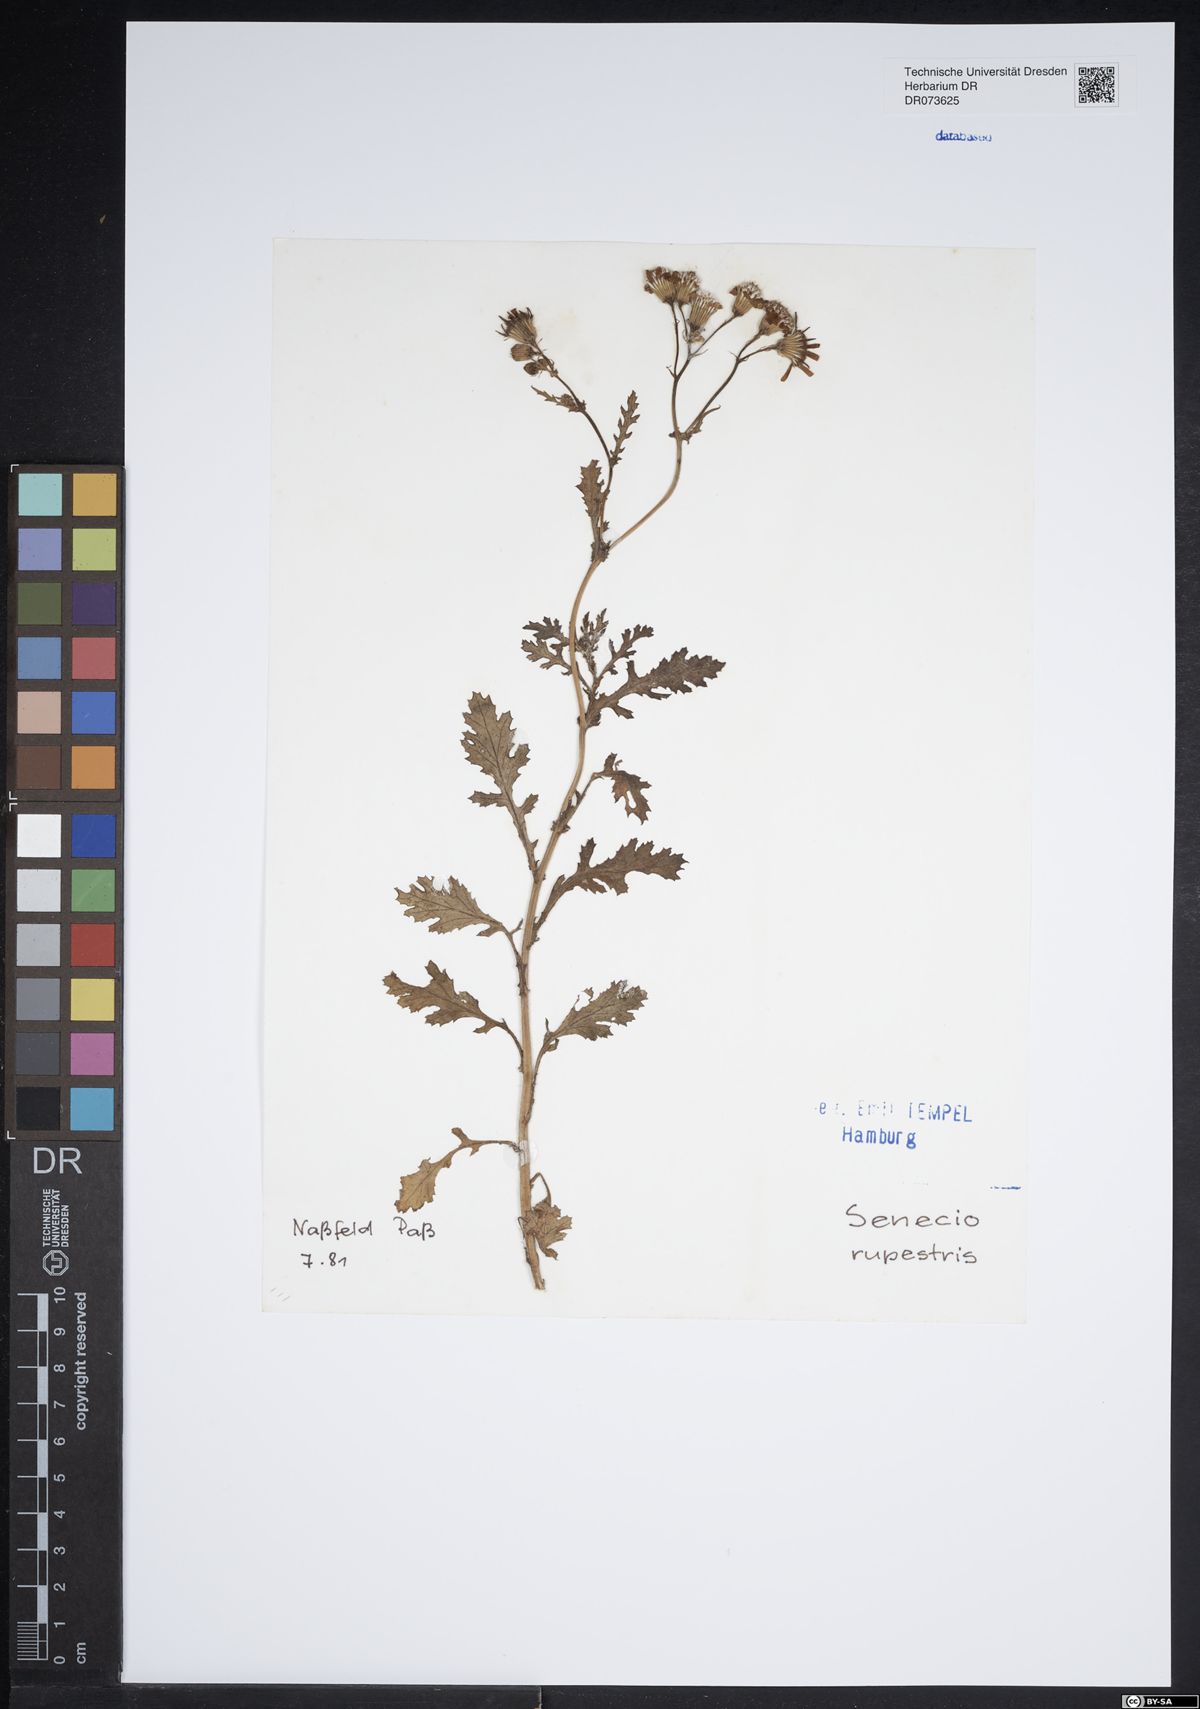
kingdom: Plantae
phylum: Tracheophyta
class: Magnoliopsida
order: Asterales
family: Asteraceae
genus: Senecio
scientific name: Senecio rupestris
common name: Rock ragwort
